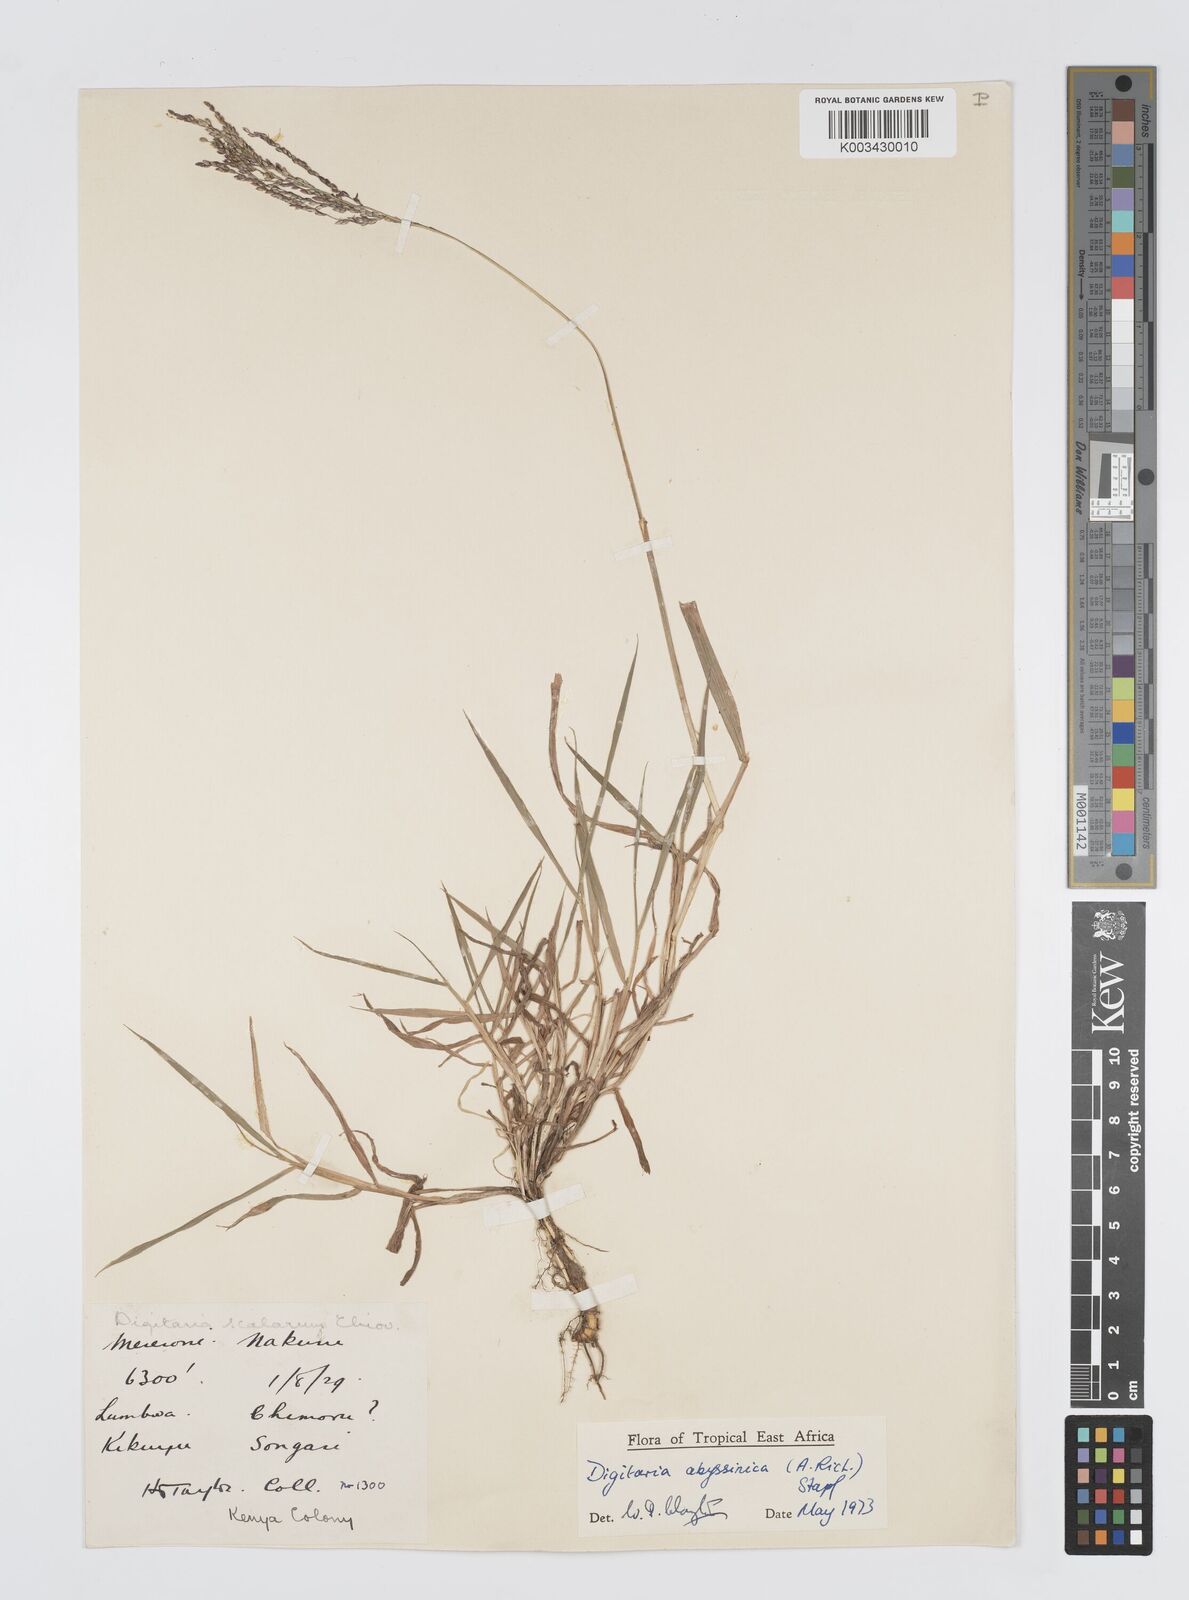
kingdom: Plantae
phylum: Tracheophyta
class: Liliopsida
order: Poales
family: Poaceae
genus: Digitaria
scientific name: Digitaria abyssinica
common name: African couchgrass
